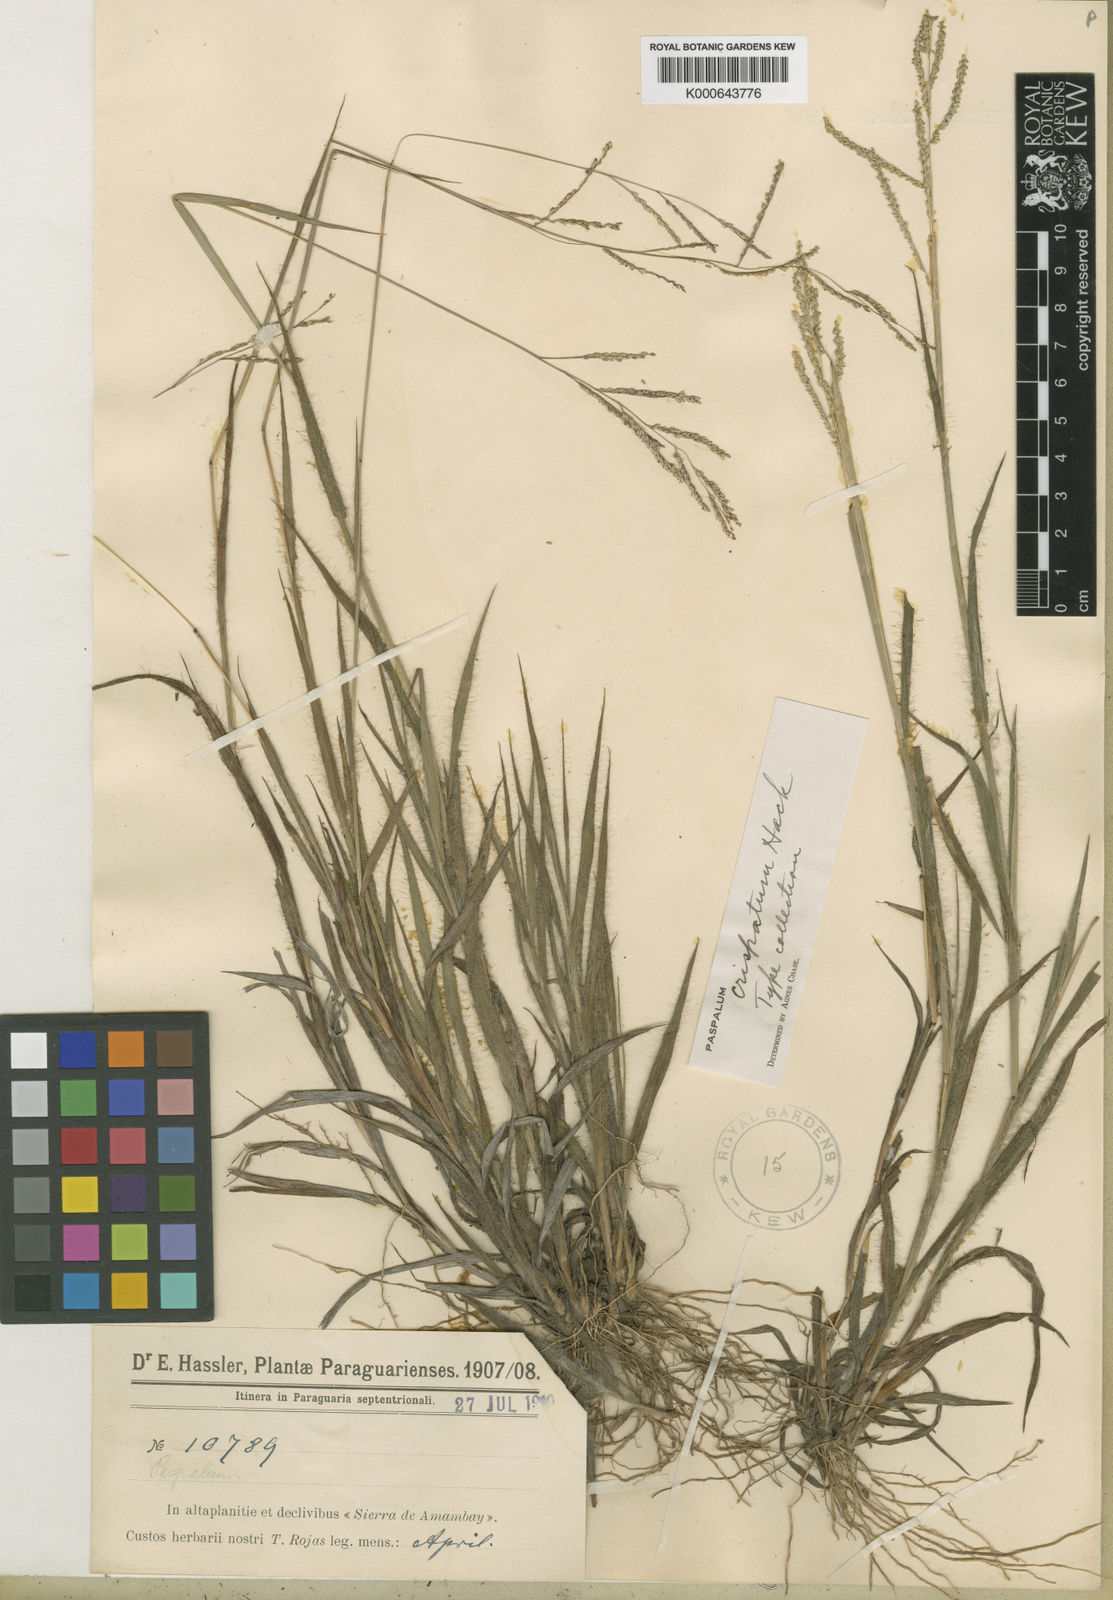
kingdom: Plantae
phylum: Tracheophyta
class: Liliopsida
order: Poales
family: Poaceae
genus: Paspalum
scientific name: Paspalum crispatum
